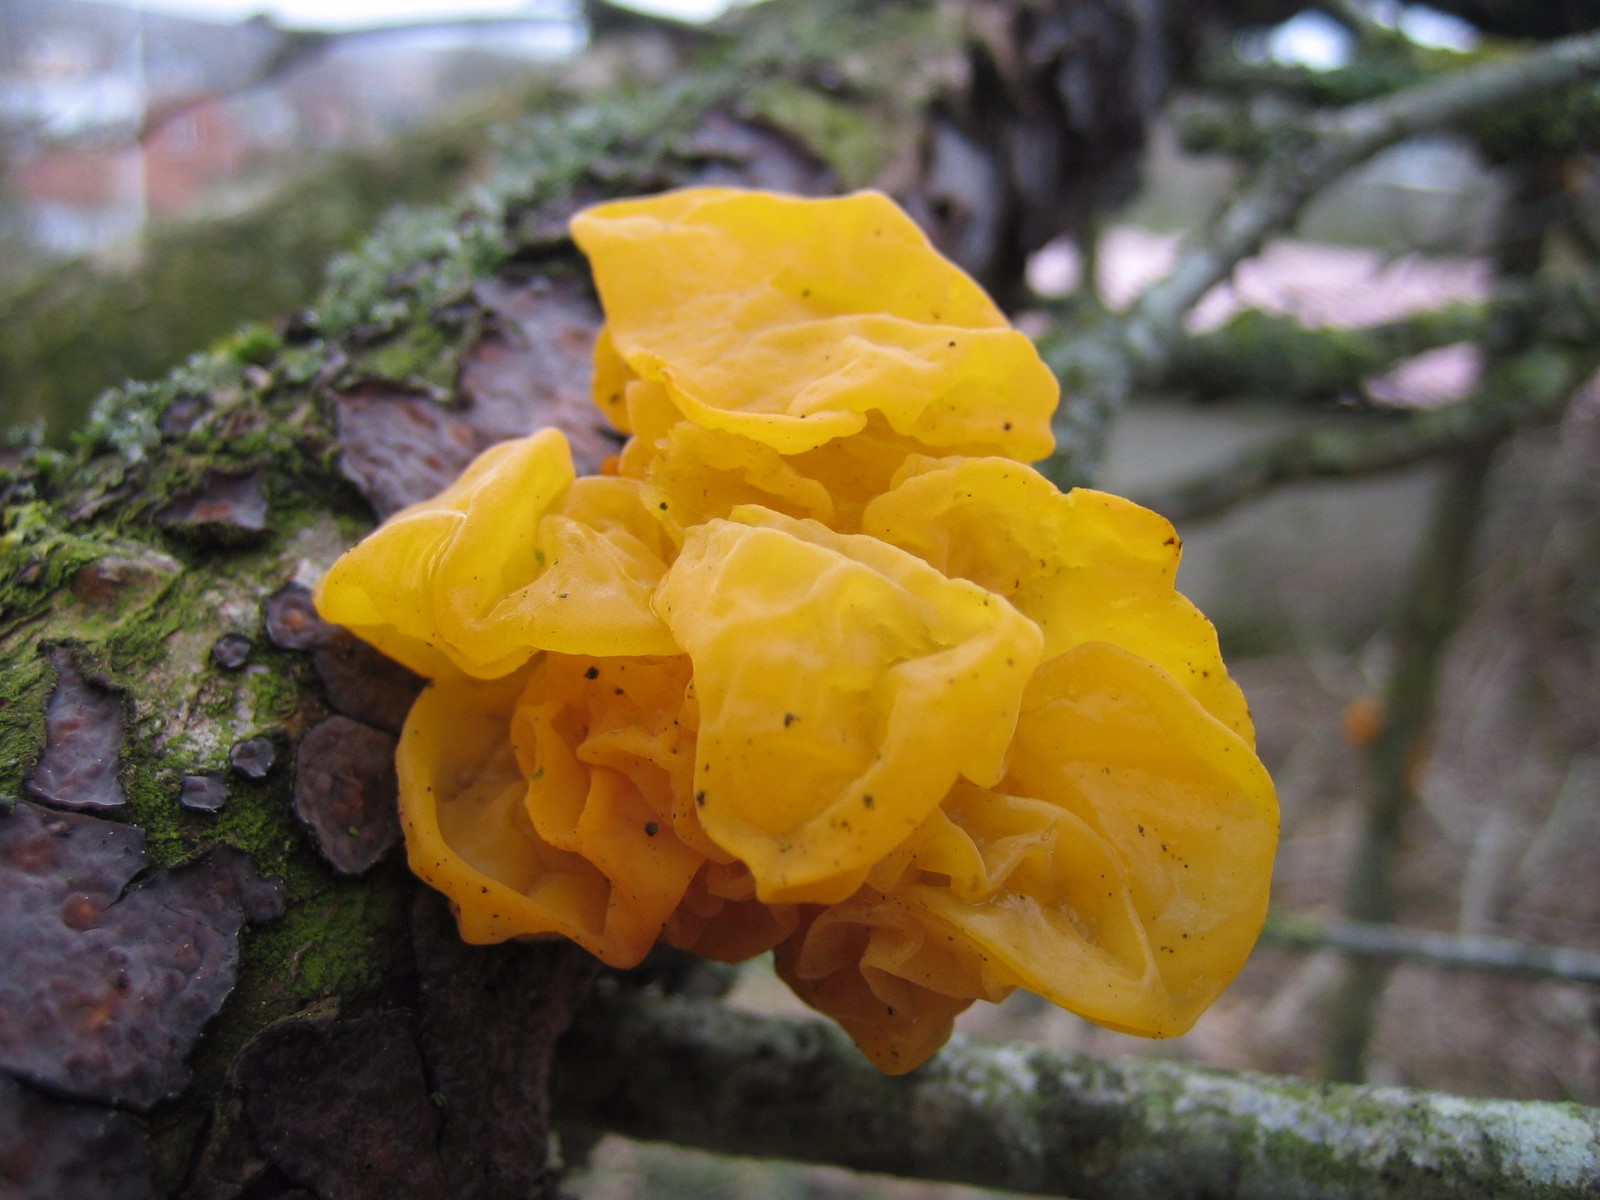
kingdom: Fungi
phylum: Basidiomycota
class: Tremellomycetes
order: Tremellales
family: Tremellaceae
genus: Tremella
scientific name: Tremella mesenterica
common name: gul bævresvamp
